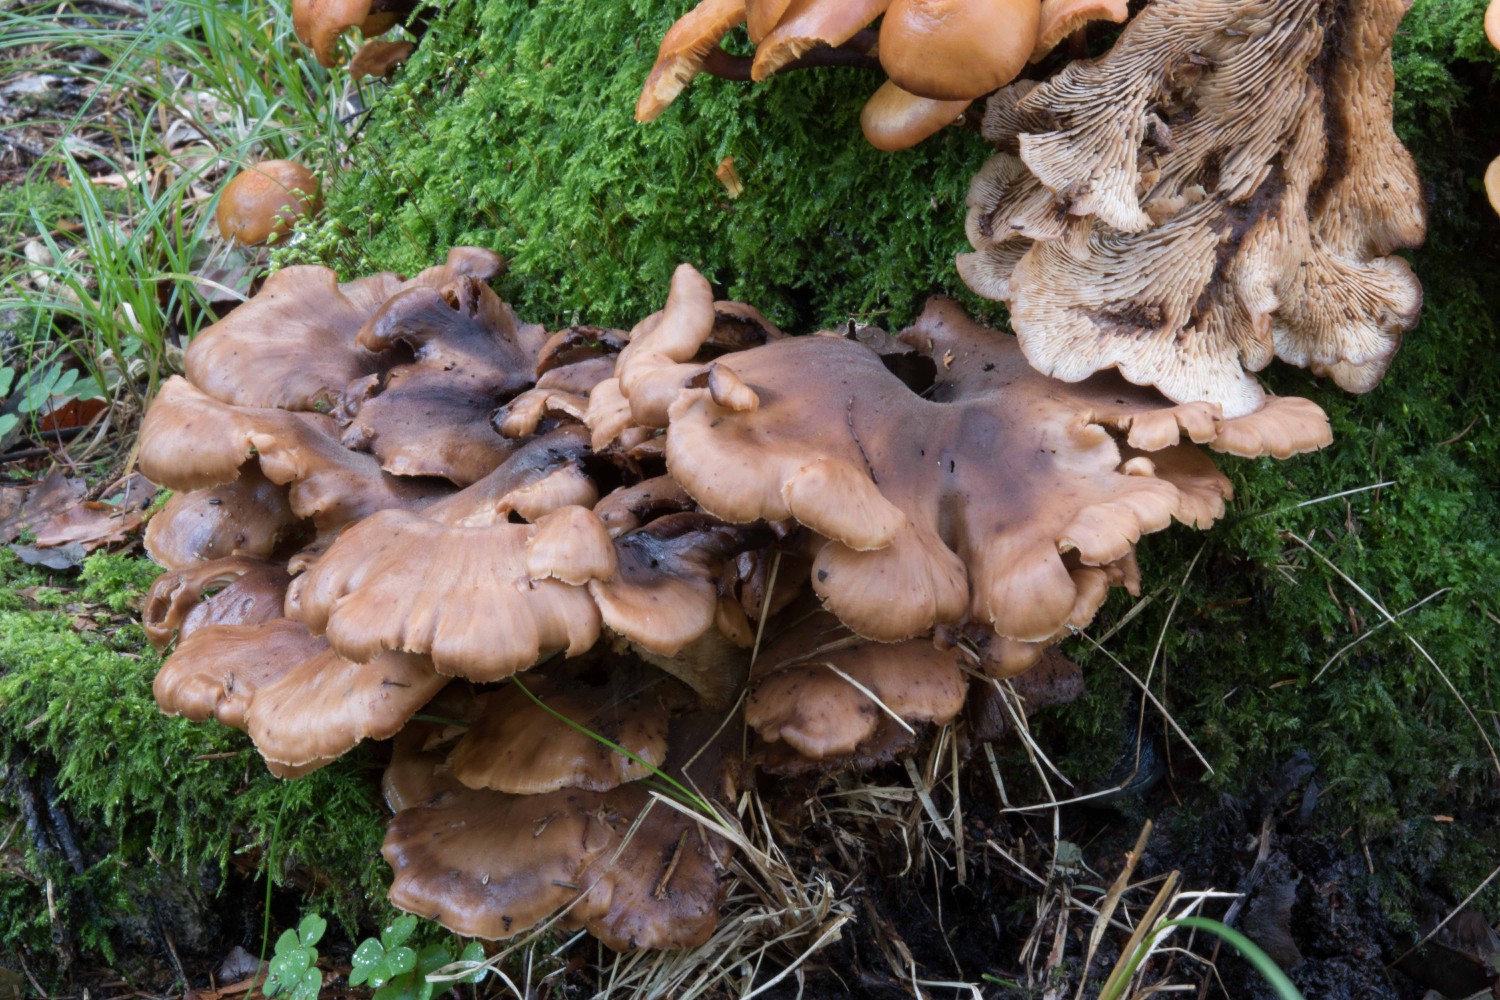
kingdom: Fungi
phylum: Basidiomycota
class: Agaricomycetes
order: Russulales
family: Auriscalpiaceae
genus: Lentinellus
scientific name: Lentinellus
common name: savbladhat
